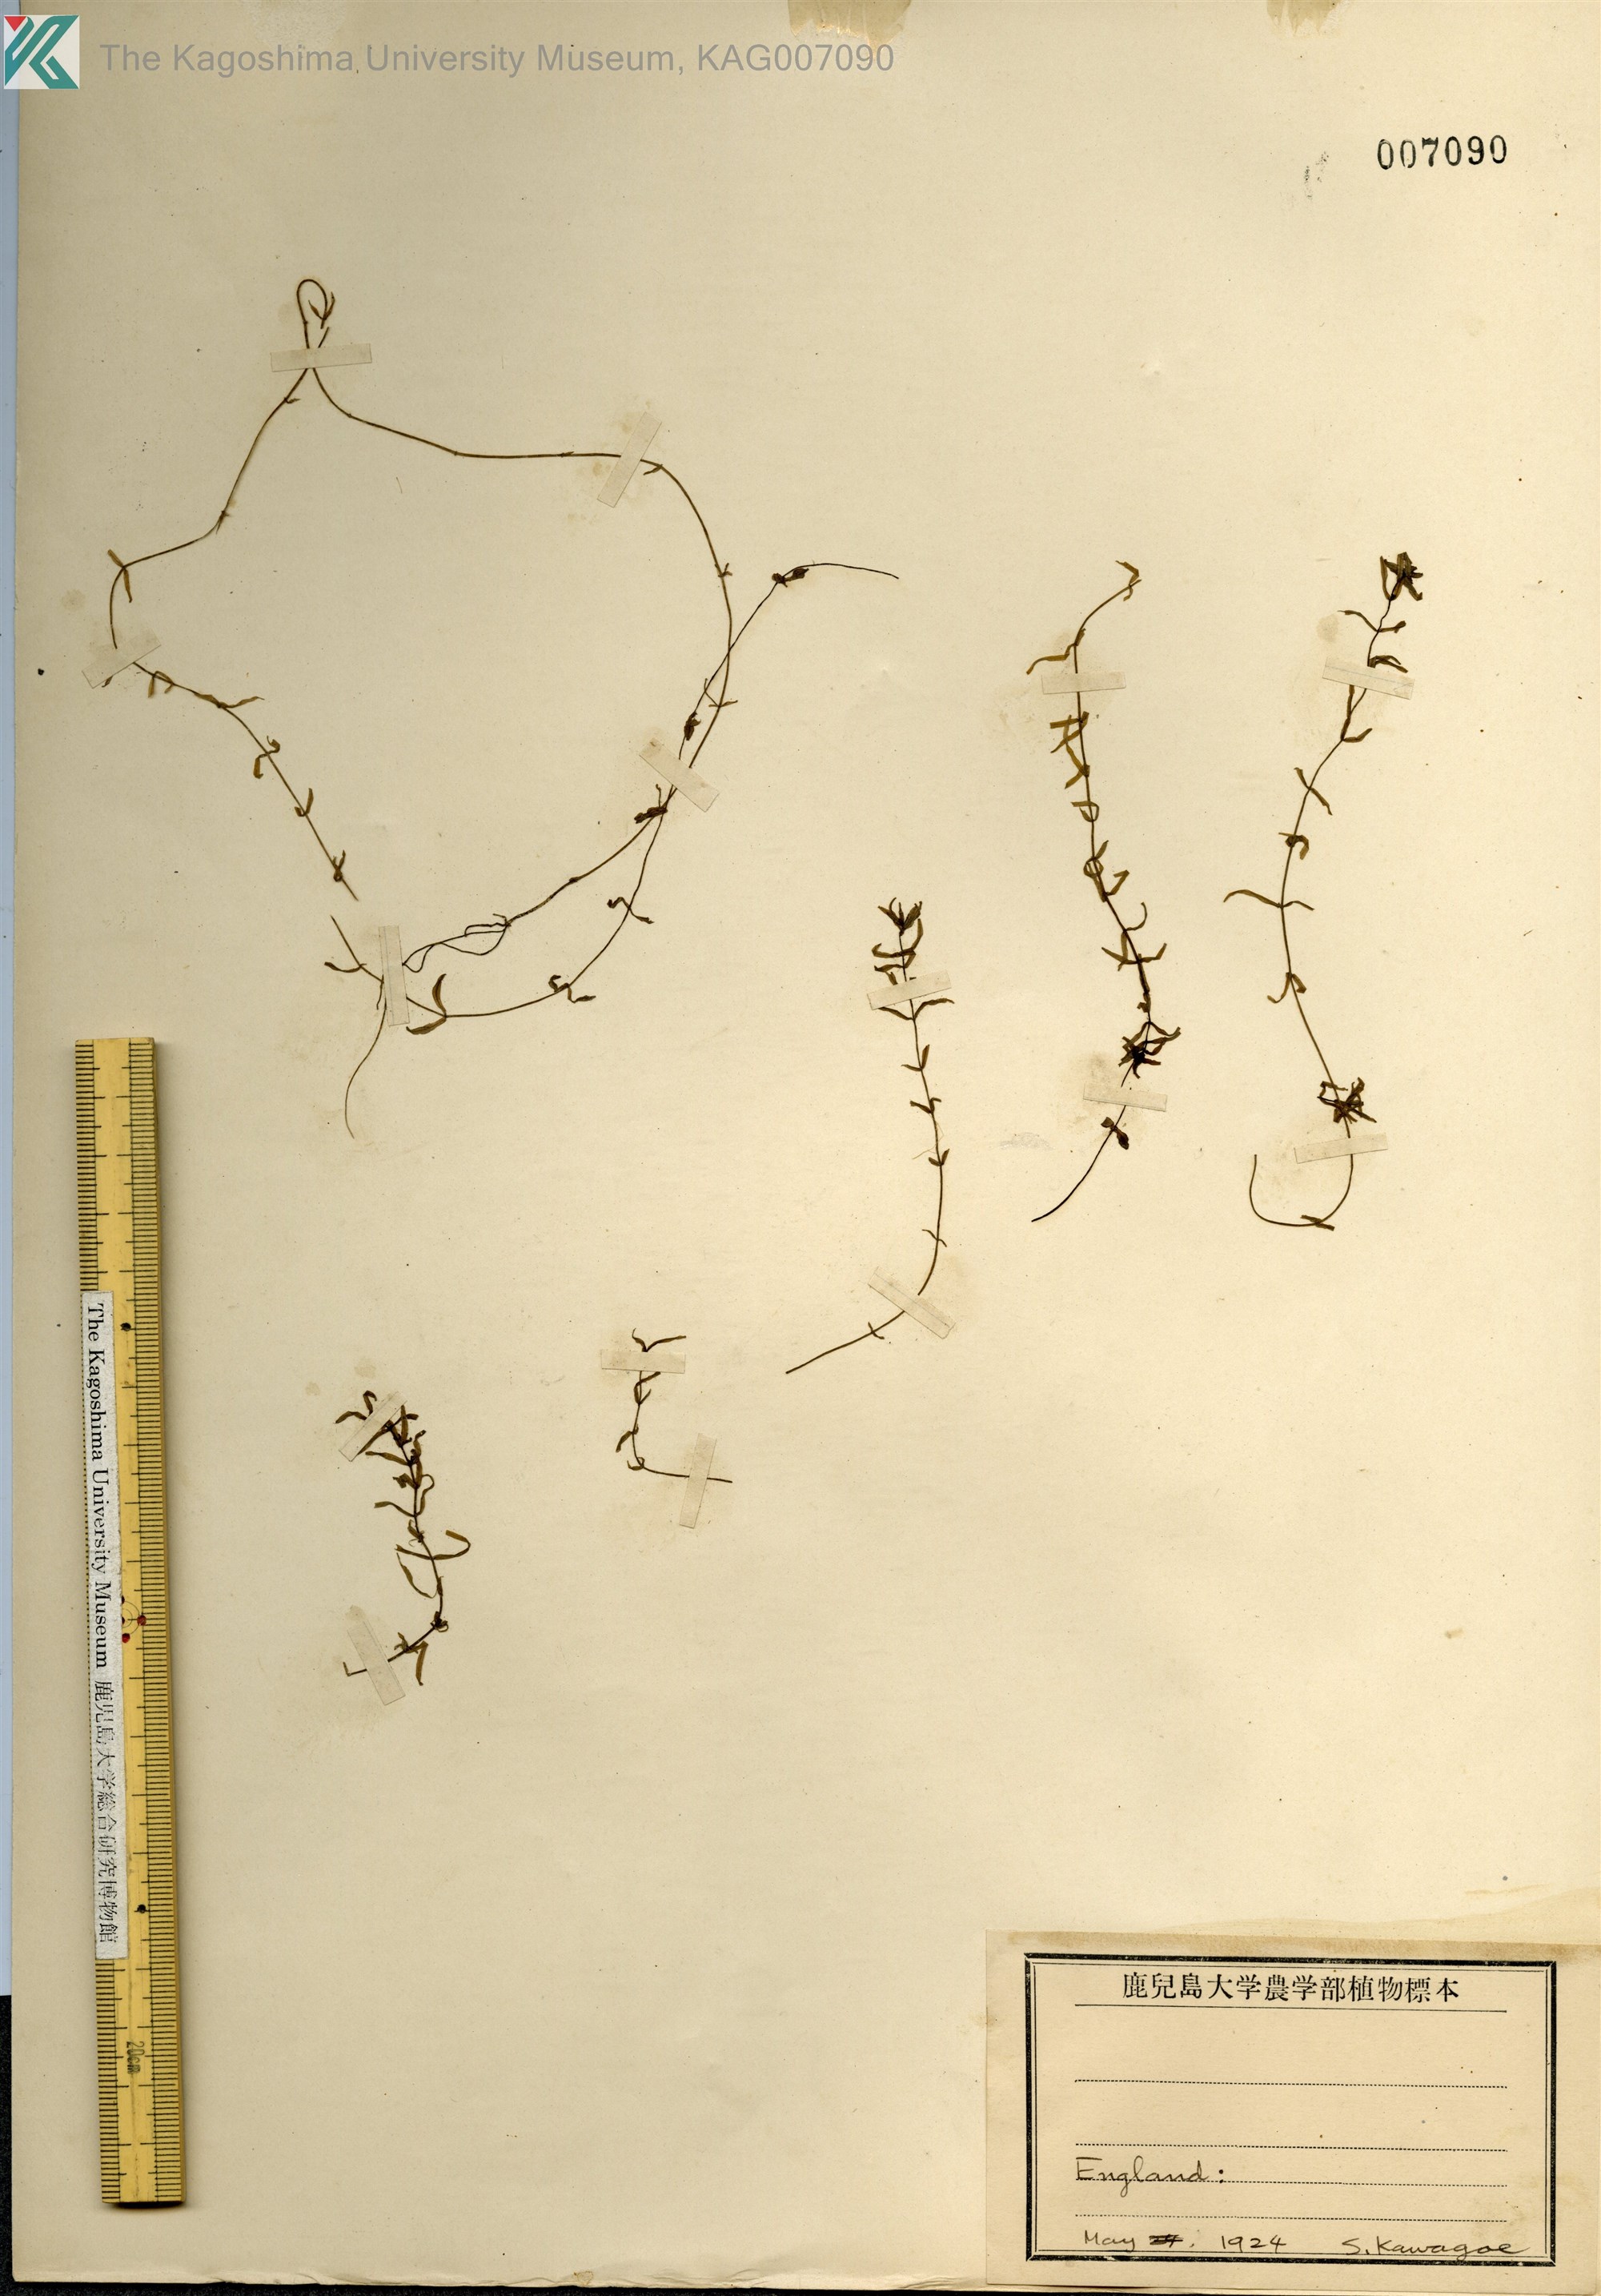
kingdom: Plantae
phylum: Tracheophyta
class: Magnoliopsida
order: Lamiales
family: Plantaginaceae
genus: Callitriche
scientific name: Callitriche autumnalis
